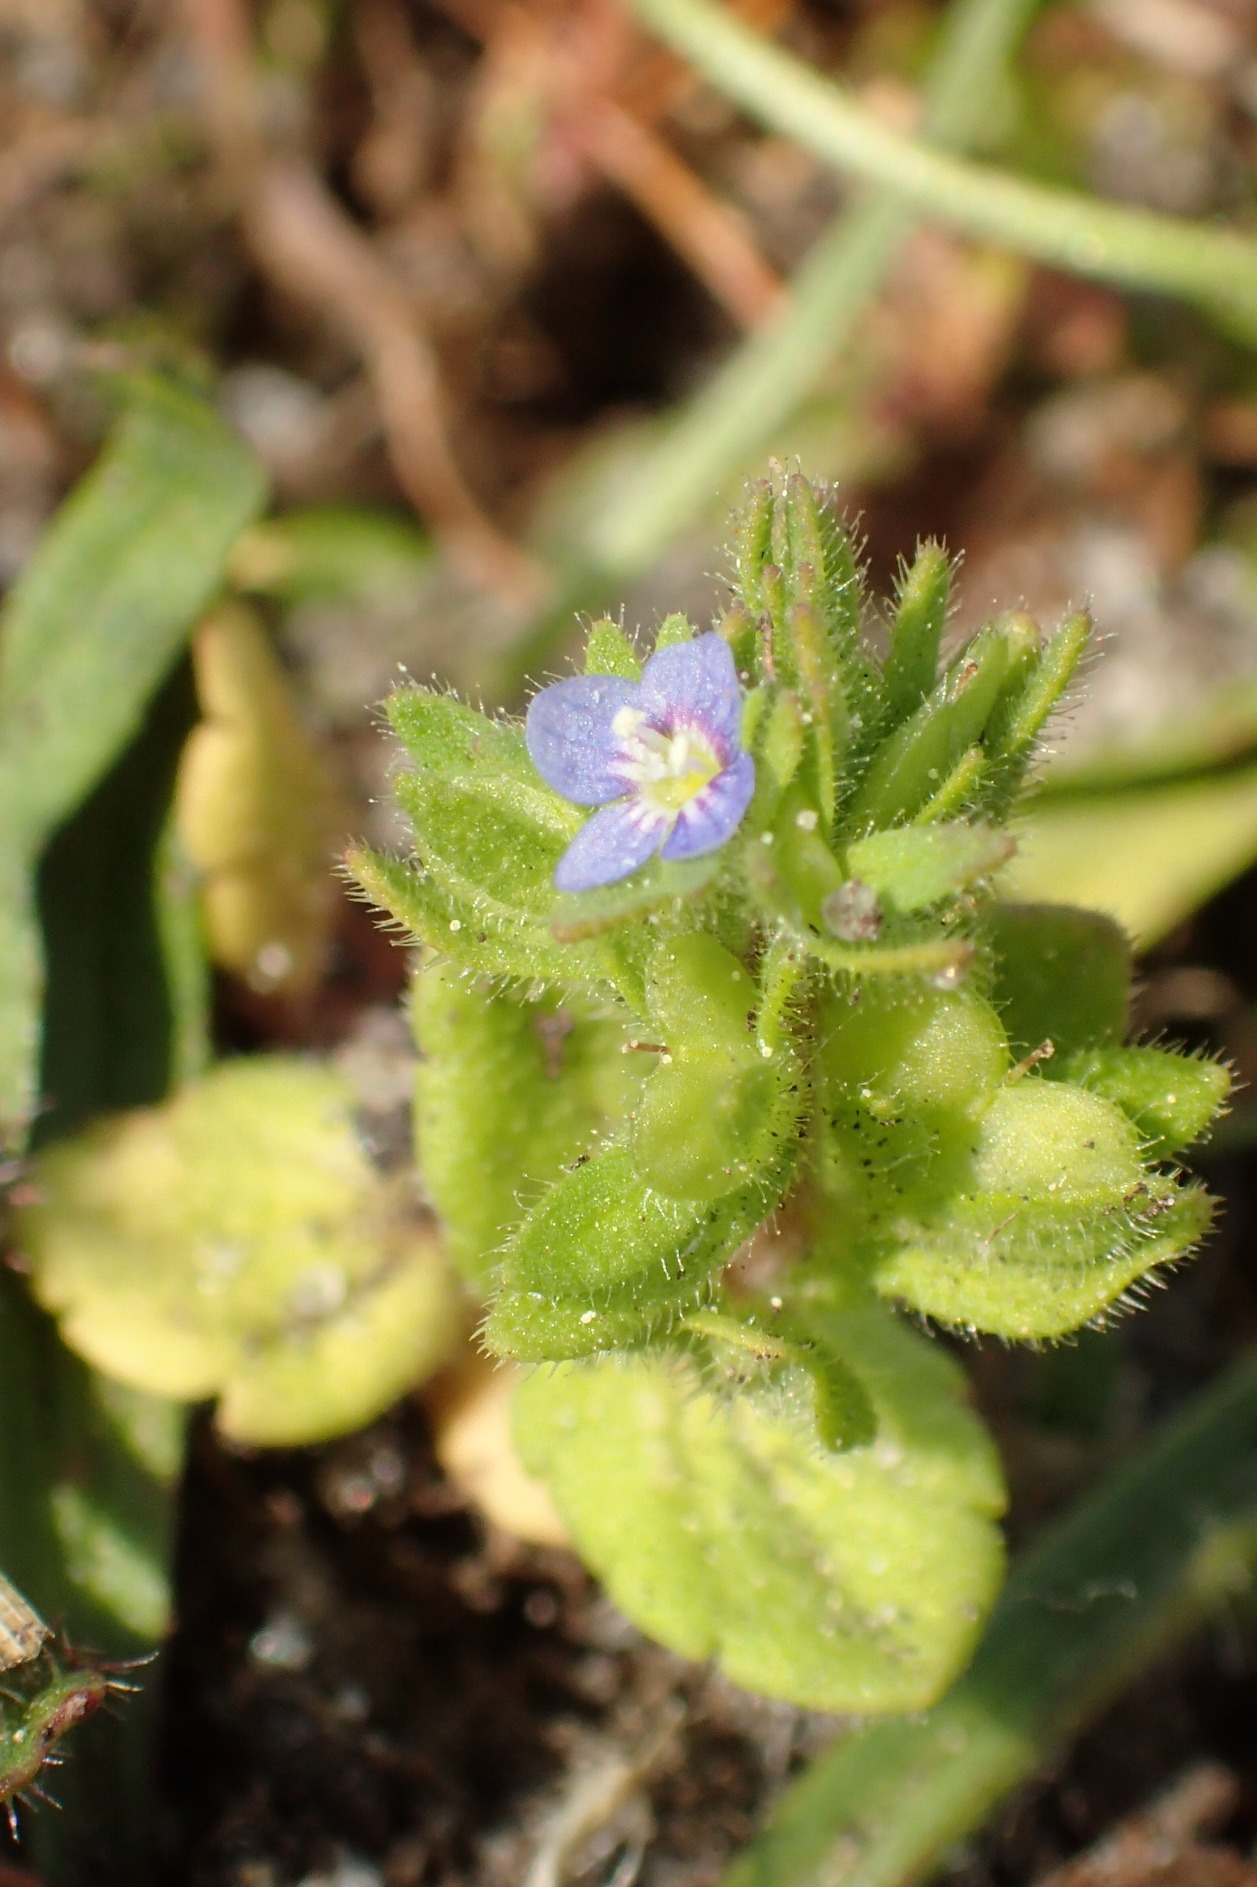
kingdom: Plantae
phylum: Tracheophyta
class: Magnoliopsida
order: Lamiales
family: Plantaginaceae
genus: Veronica
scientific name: Veronica arvensis
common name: Mark-ærenpris
